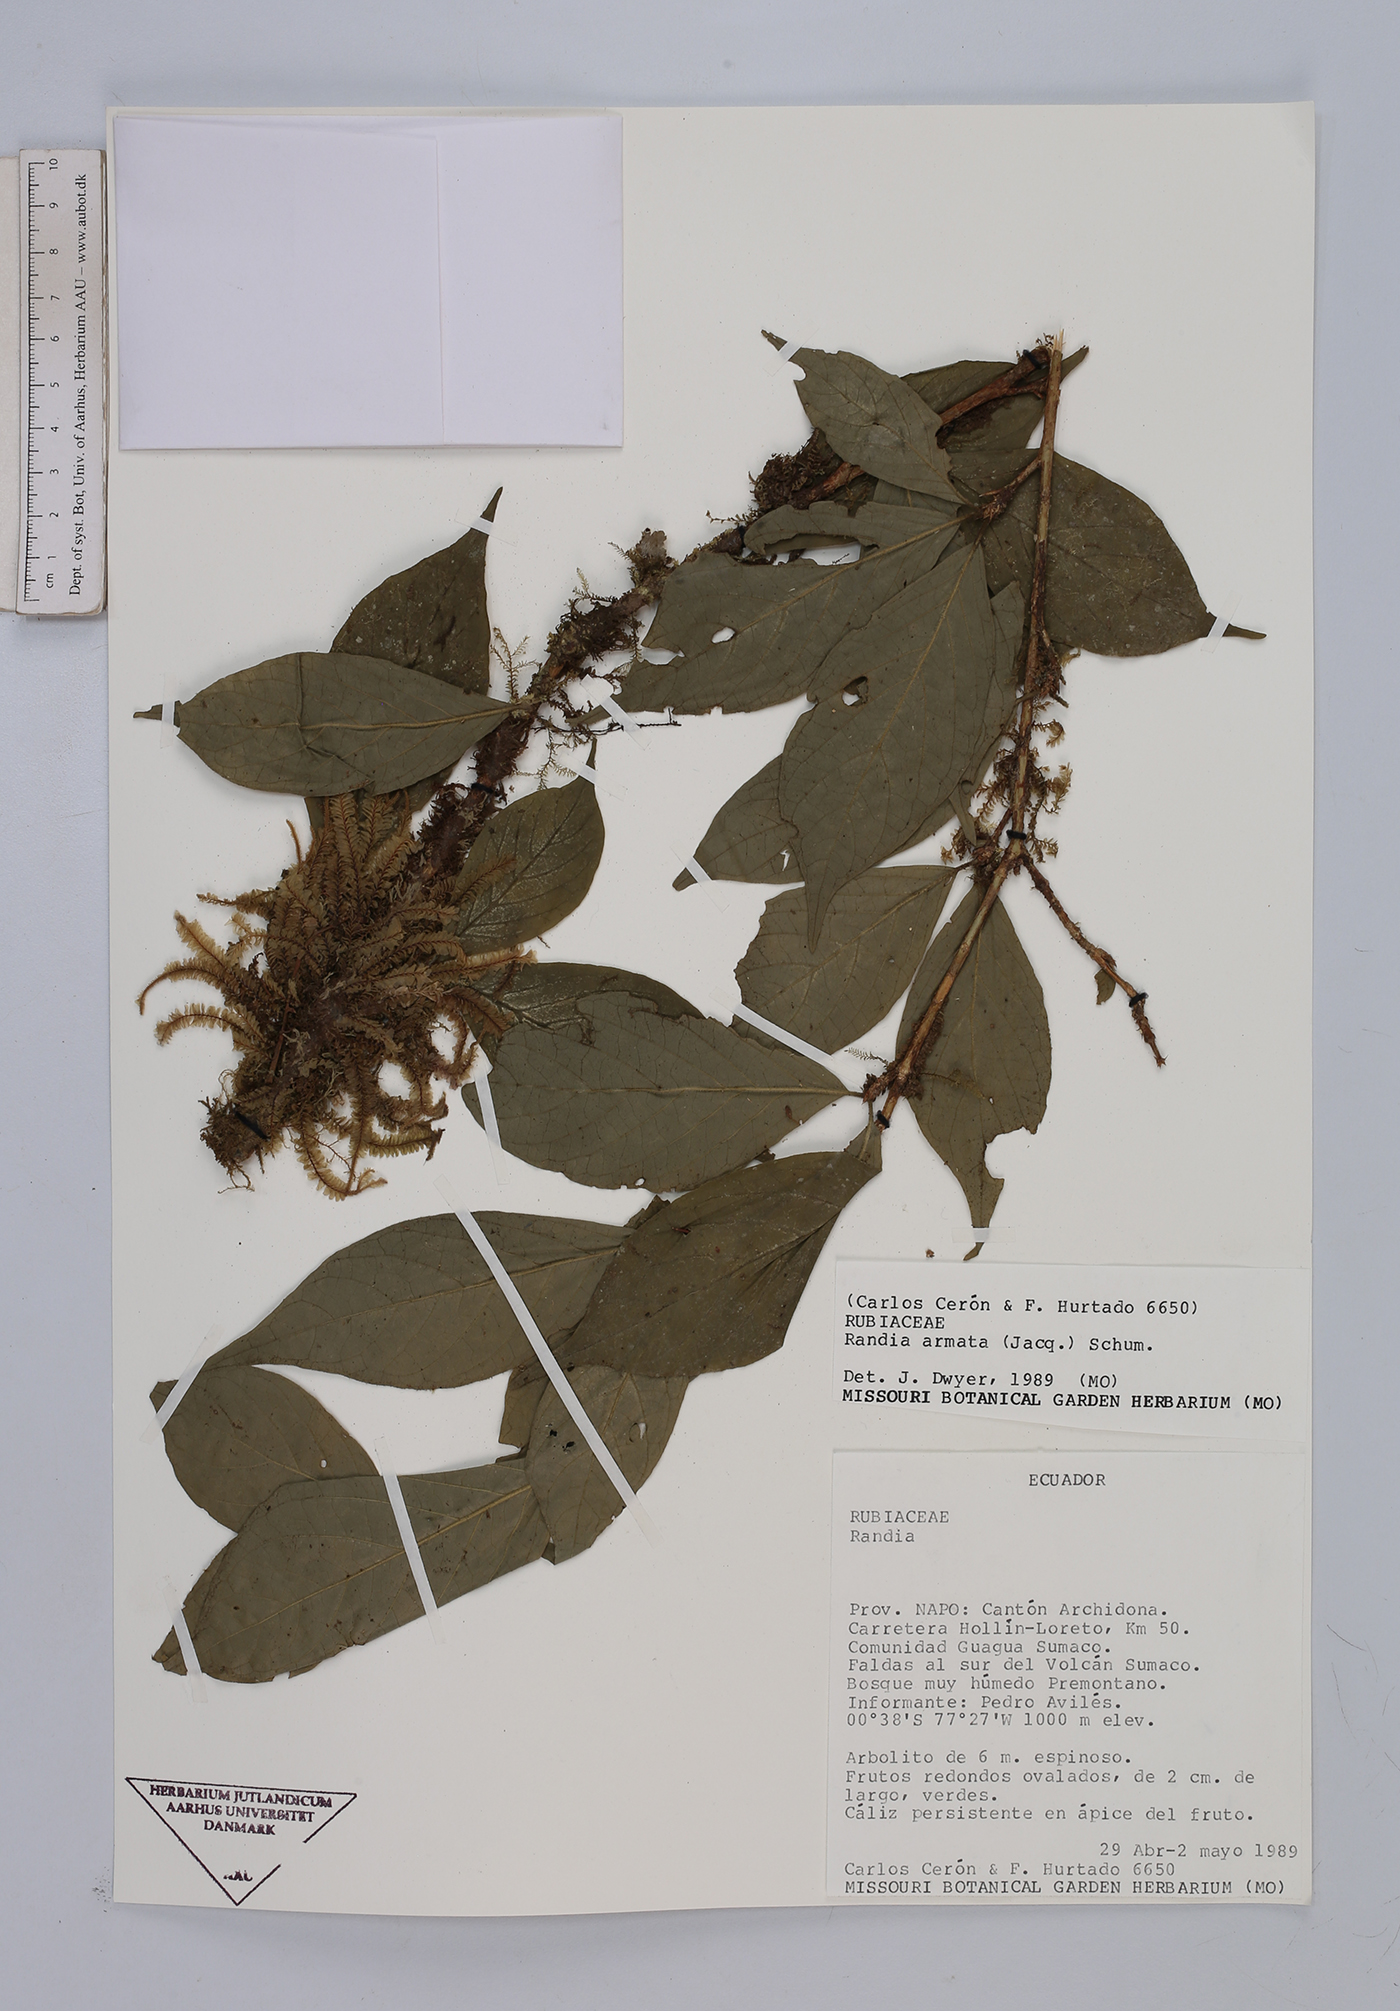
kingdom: Plantae
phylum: Tracheophyta
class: Magnoliopsida
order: Gentianales
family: Rubiaceae
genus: Randia
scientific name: Randia armata
